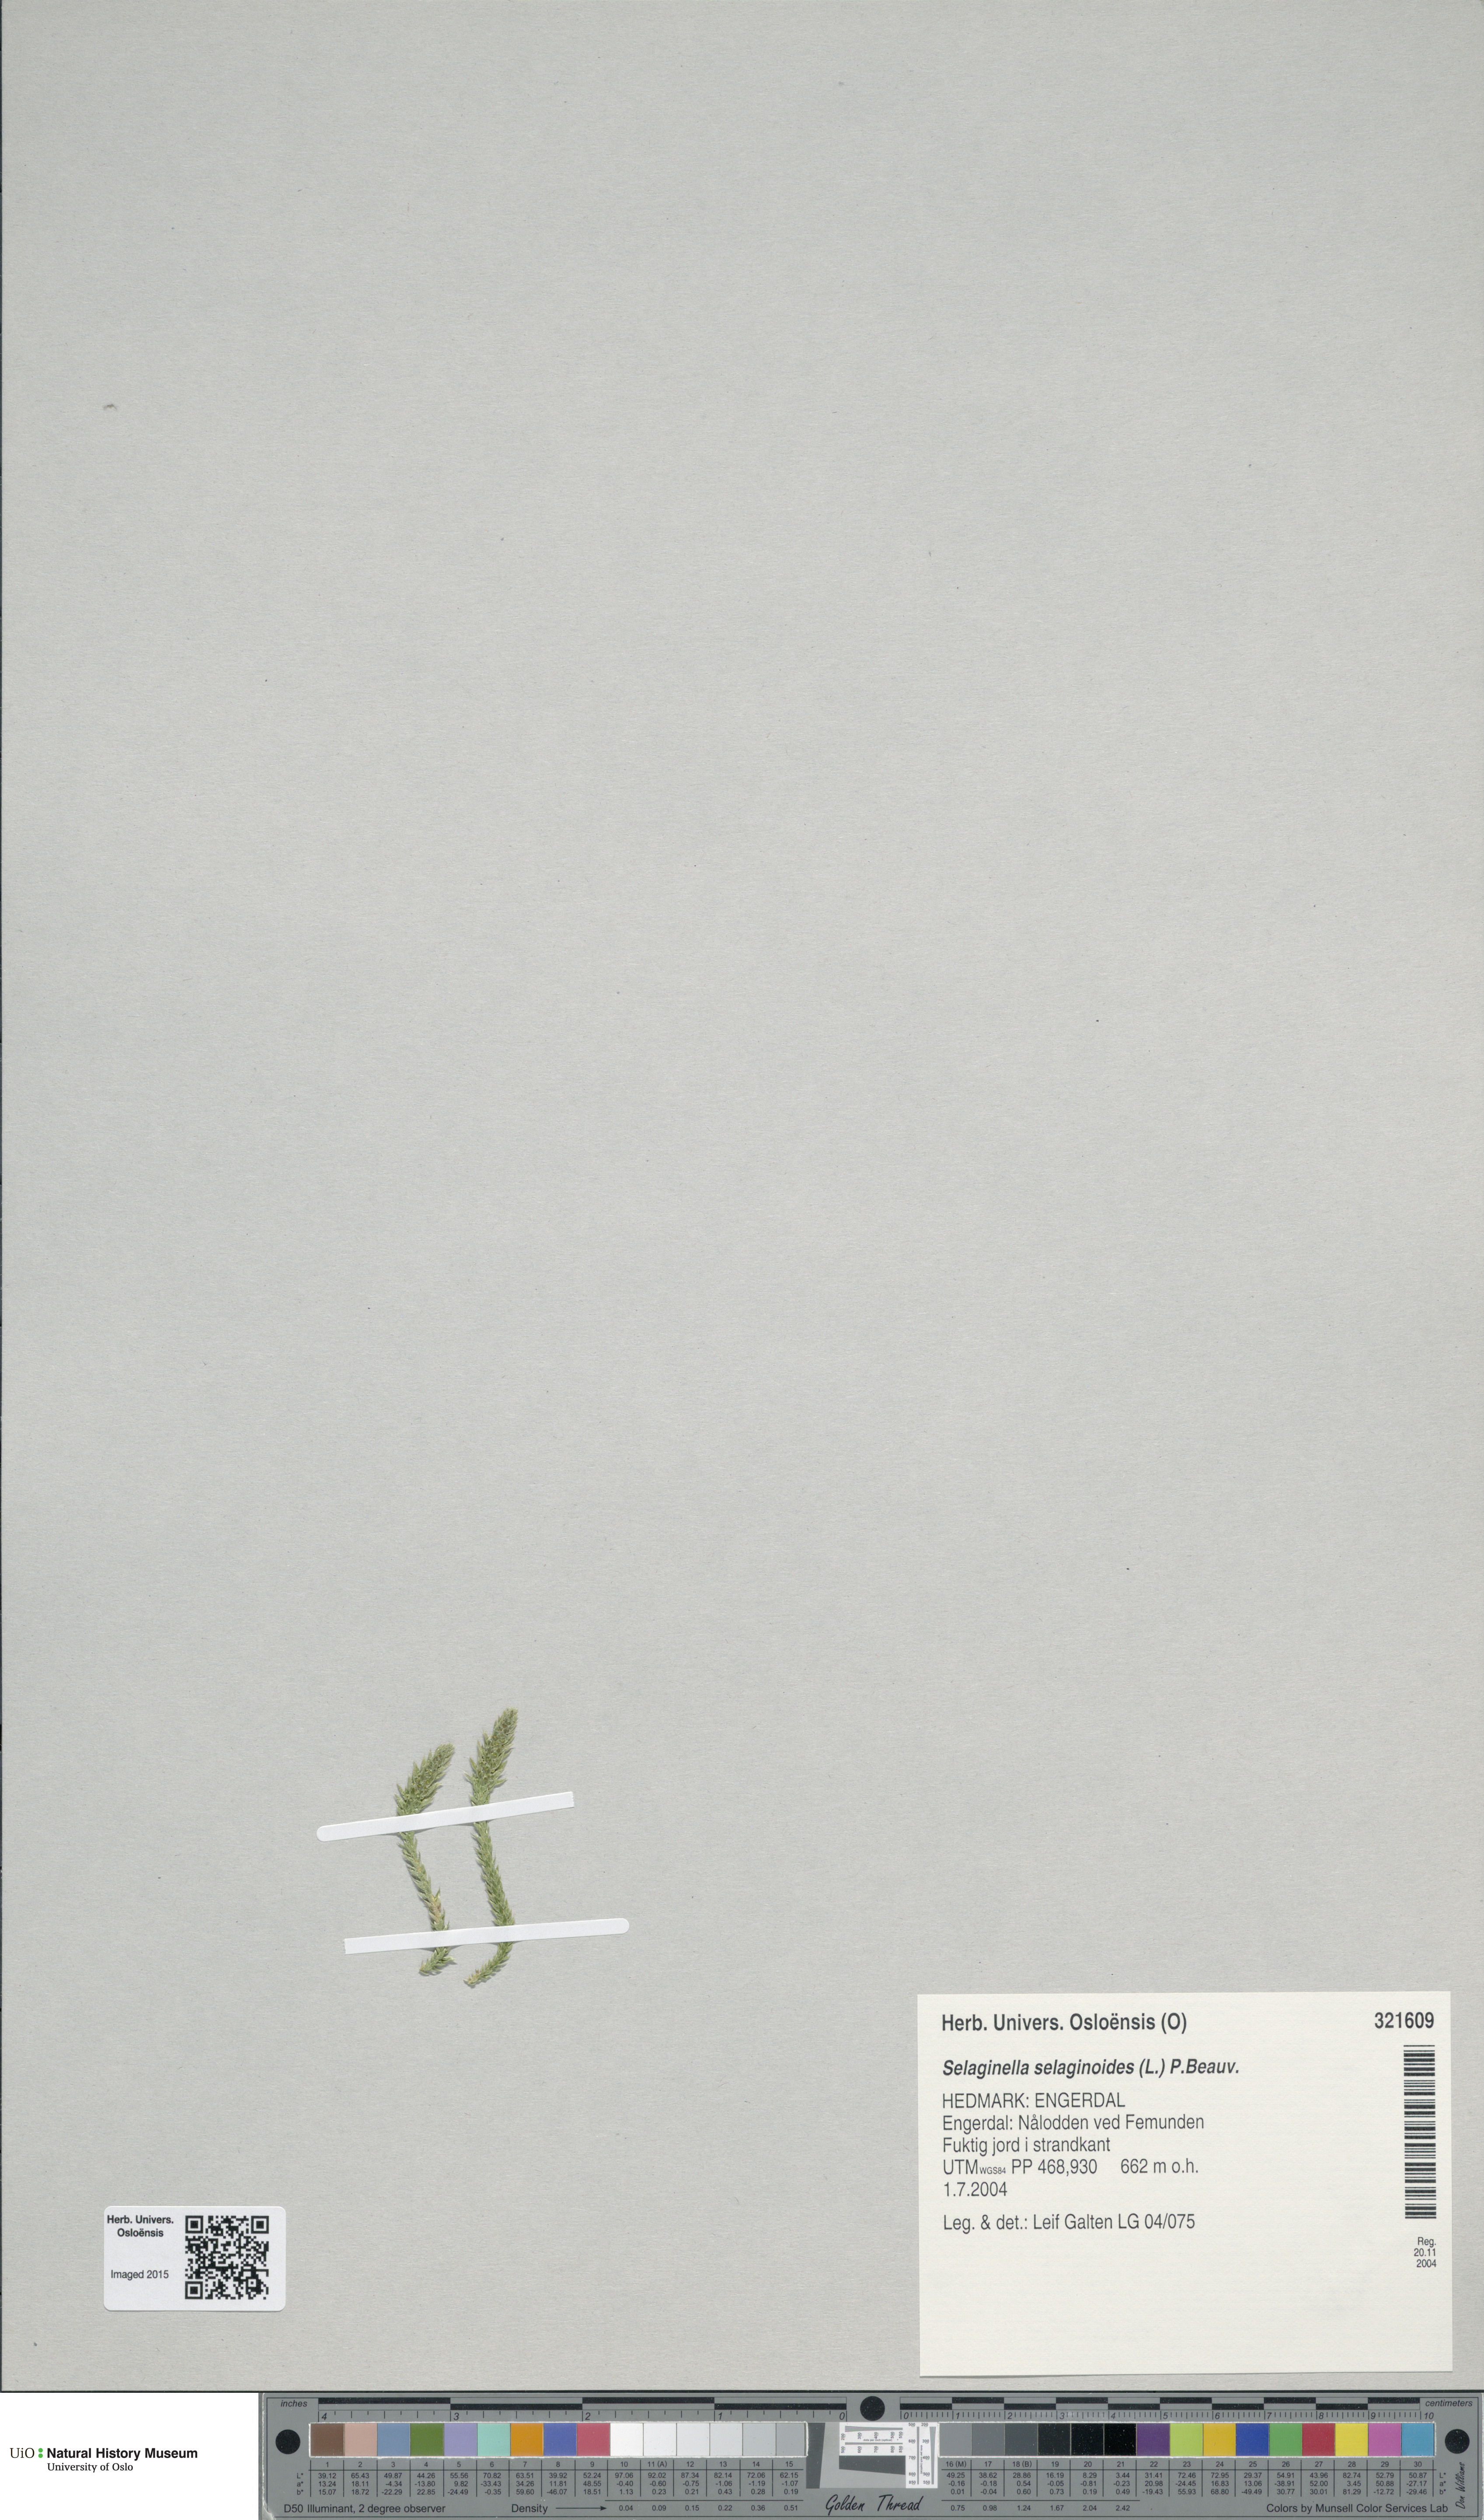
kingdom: Plantae
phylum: Tracheophyta
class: Lycopodiopsida
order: Selaginellales
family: Selaginellaceae
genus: Selaginella
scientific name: Selaginella selaginoides
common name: Prickly mountain-moss
